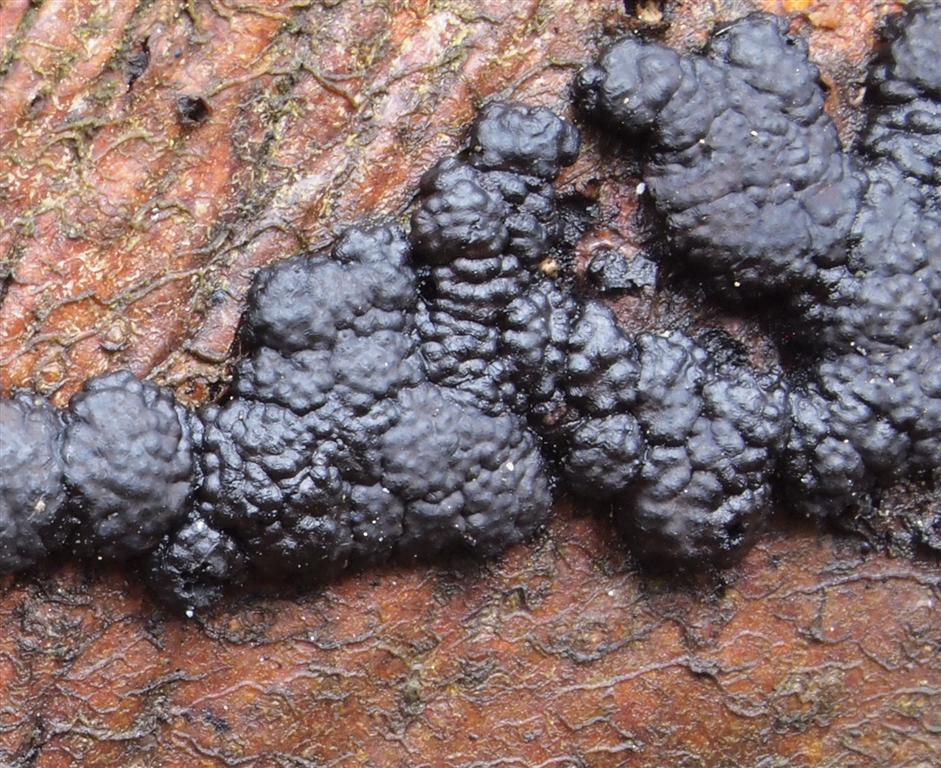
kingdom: Fungi
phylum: Ascomycota
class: Sordariomycetes
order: Xylariales
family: Hypoxylaceae
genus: Jackrogersella
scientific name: Jackrogersella cohaerens
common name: sammenflydende kulbær
